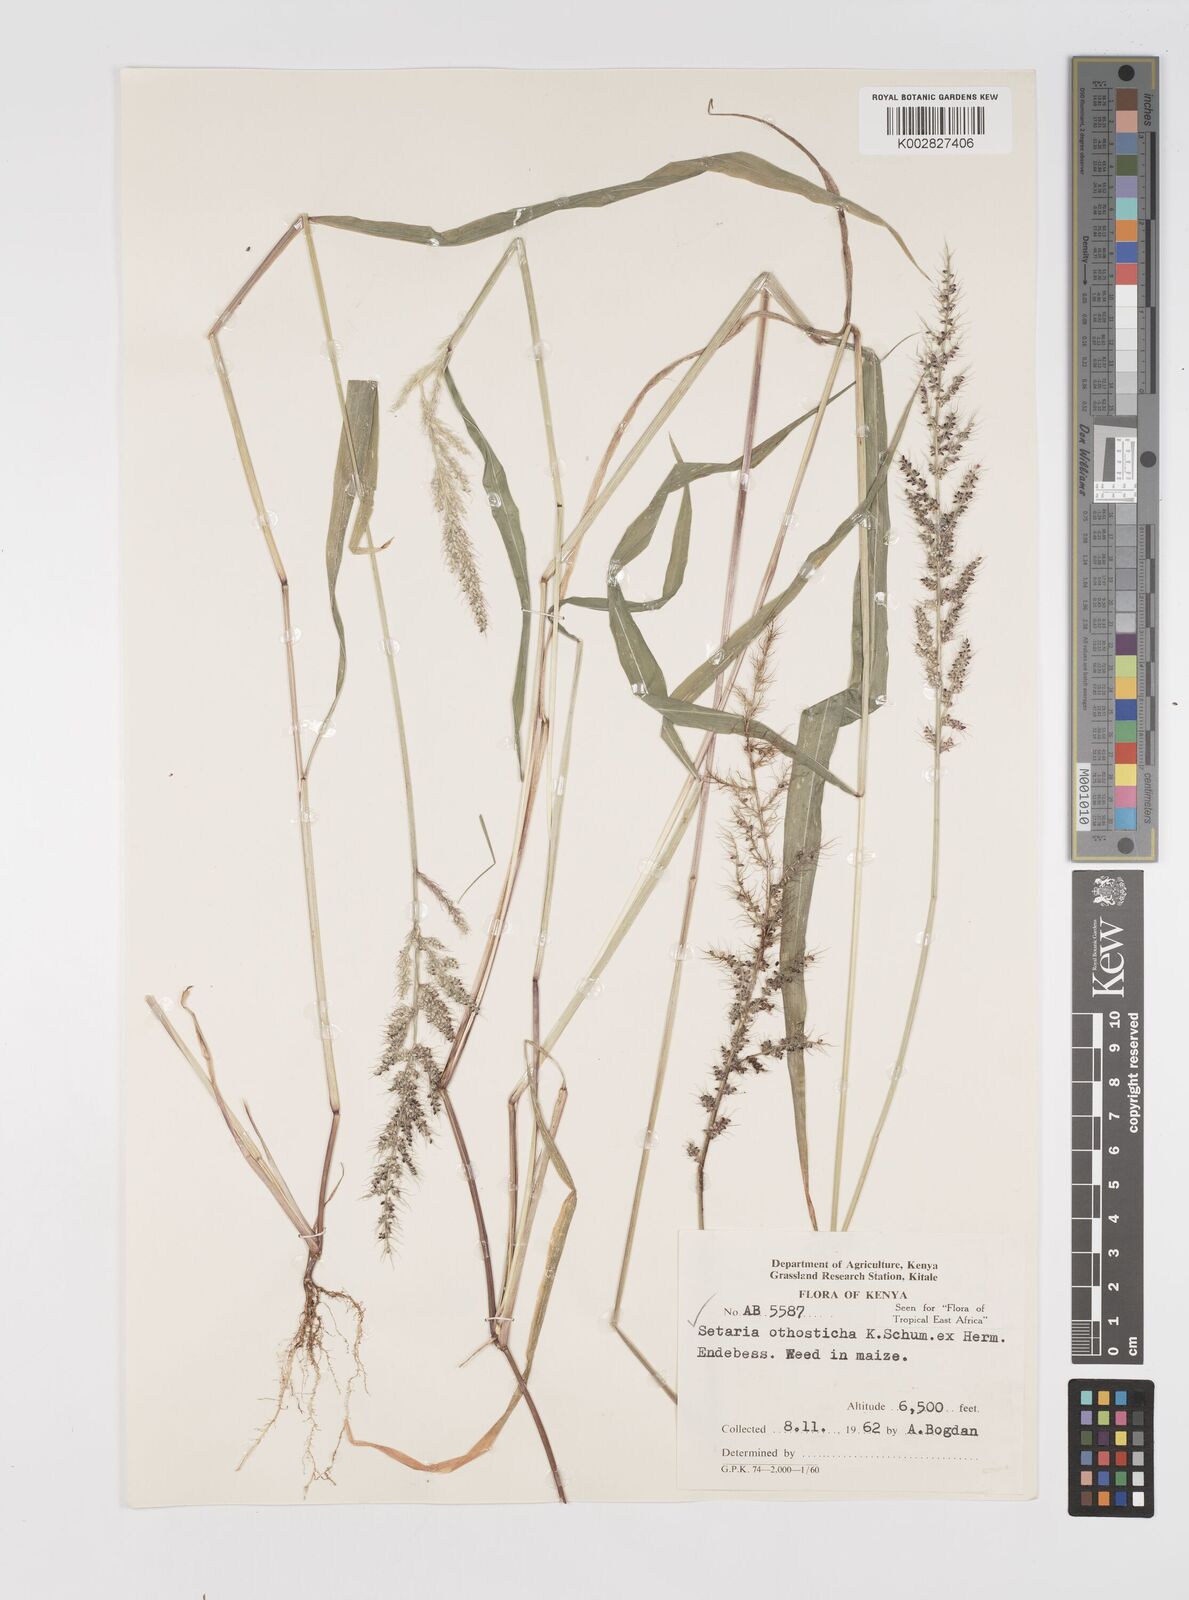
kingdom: Plantae
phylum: Tracheophyta
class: Liliopsida
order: Poales
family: Poaceae
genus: Setaria
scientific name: Setaria orthosticha
